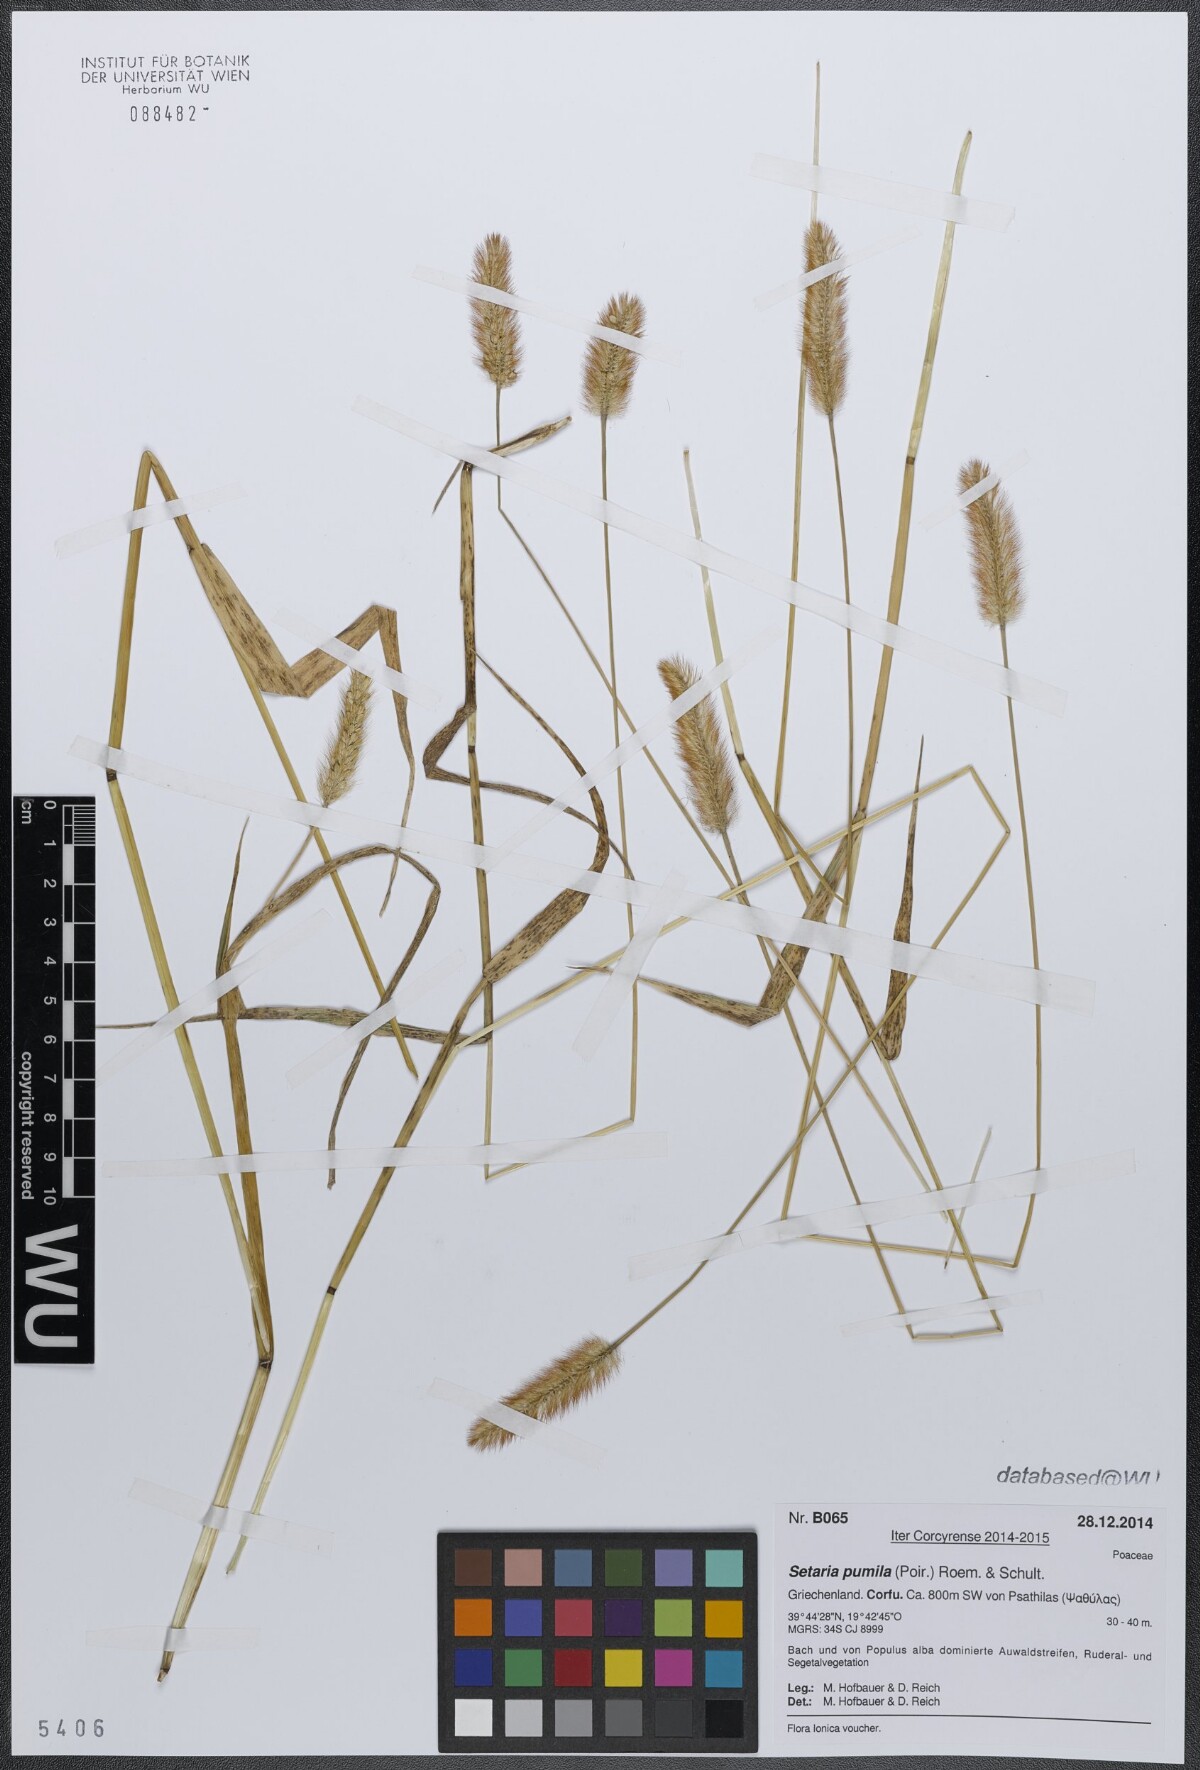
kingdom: Plantae
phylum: Tracheophyta
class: Liliopsida
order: Poales
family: Poaceae
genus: Setaria
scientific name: Setaria pumila
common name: Yellow bristle-grass
